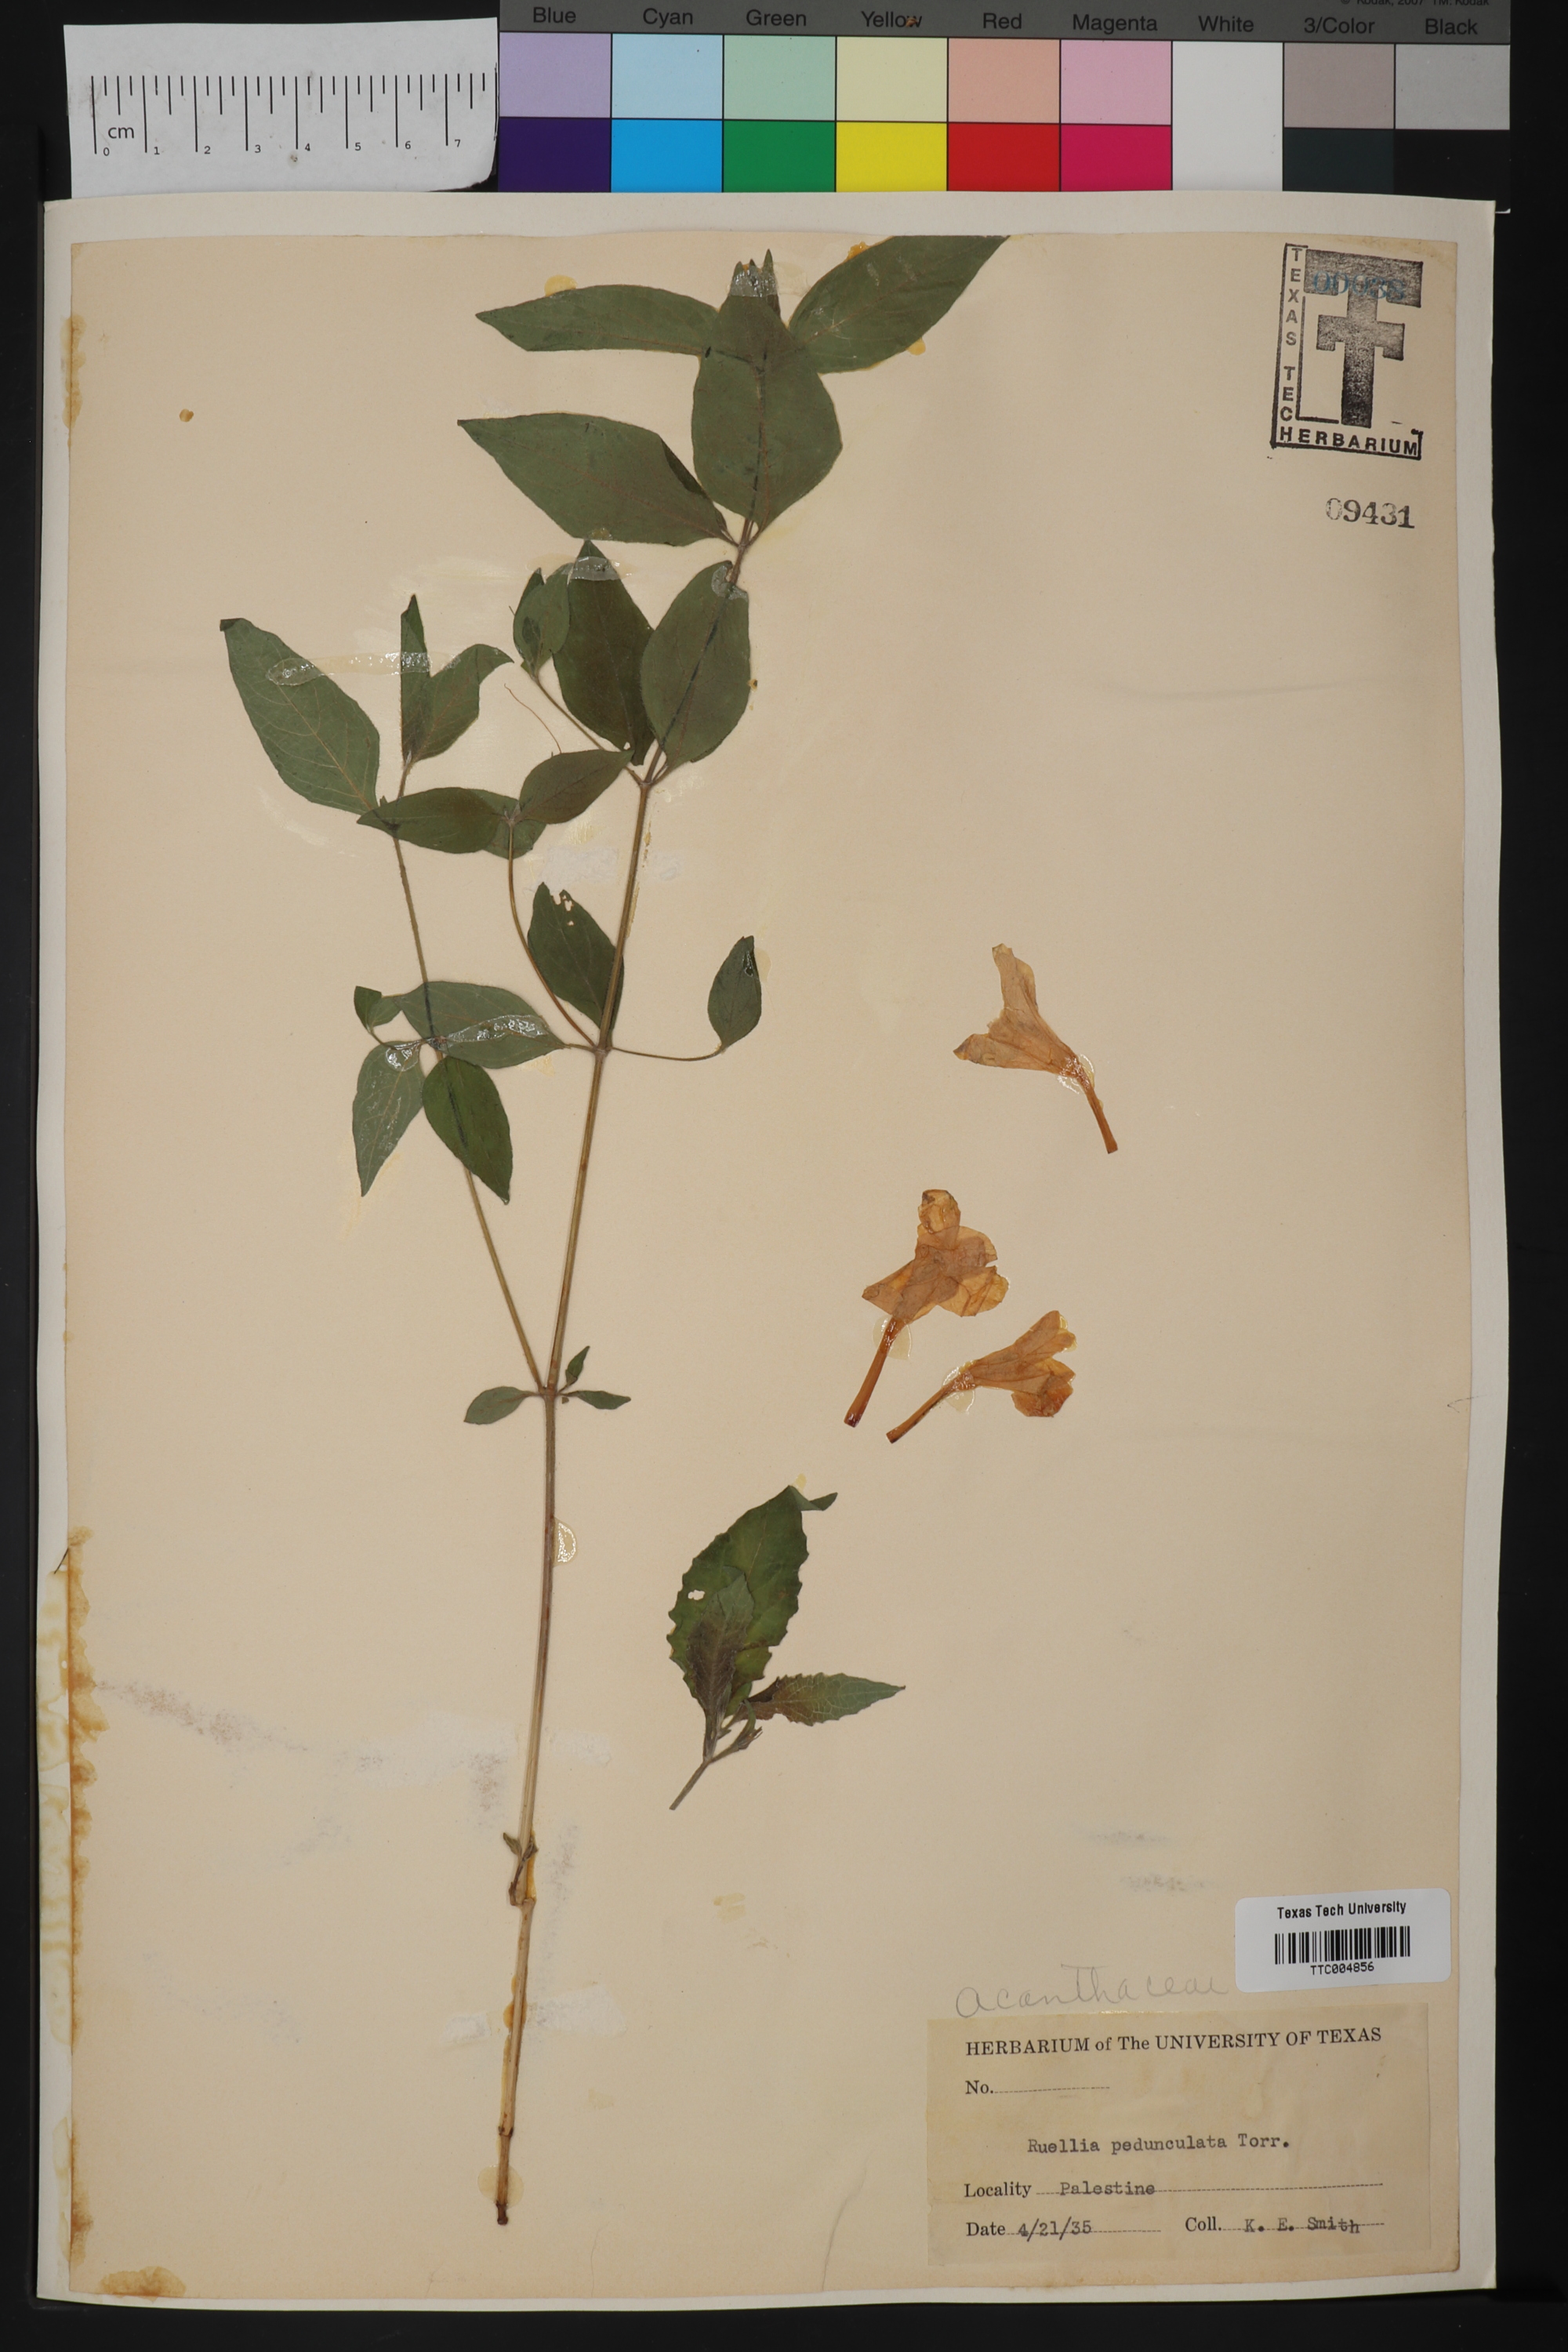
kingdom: Plantae
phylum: Tracheophyta
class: Magnoliopsida
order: Lamiales
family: Acanthaceae
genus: Ruellia
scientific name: Ruellia pedunculata
